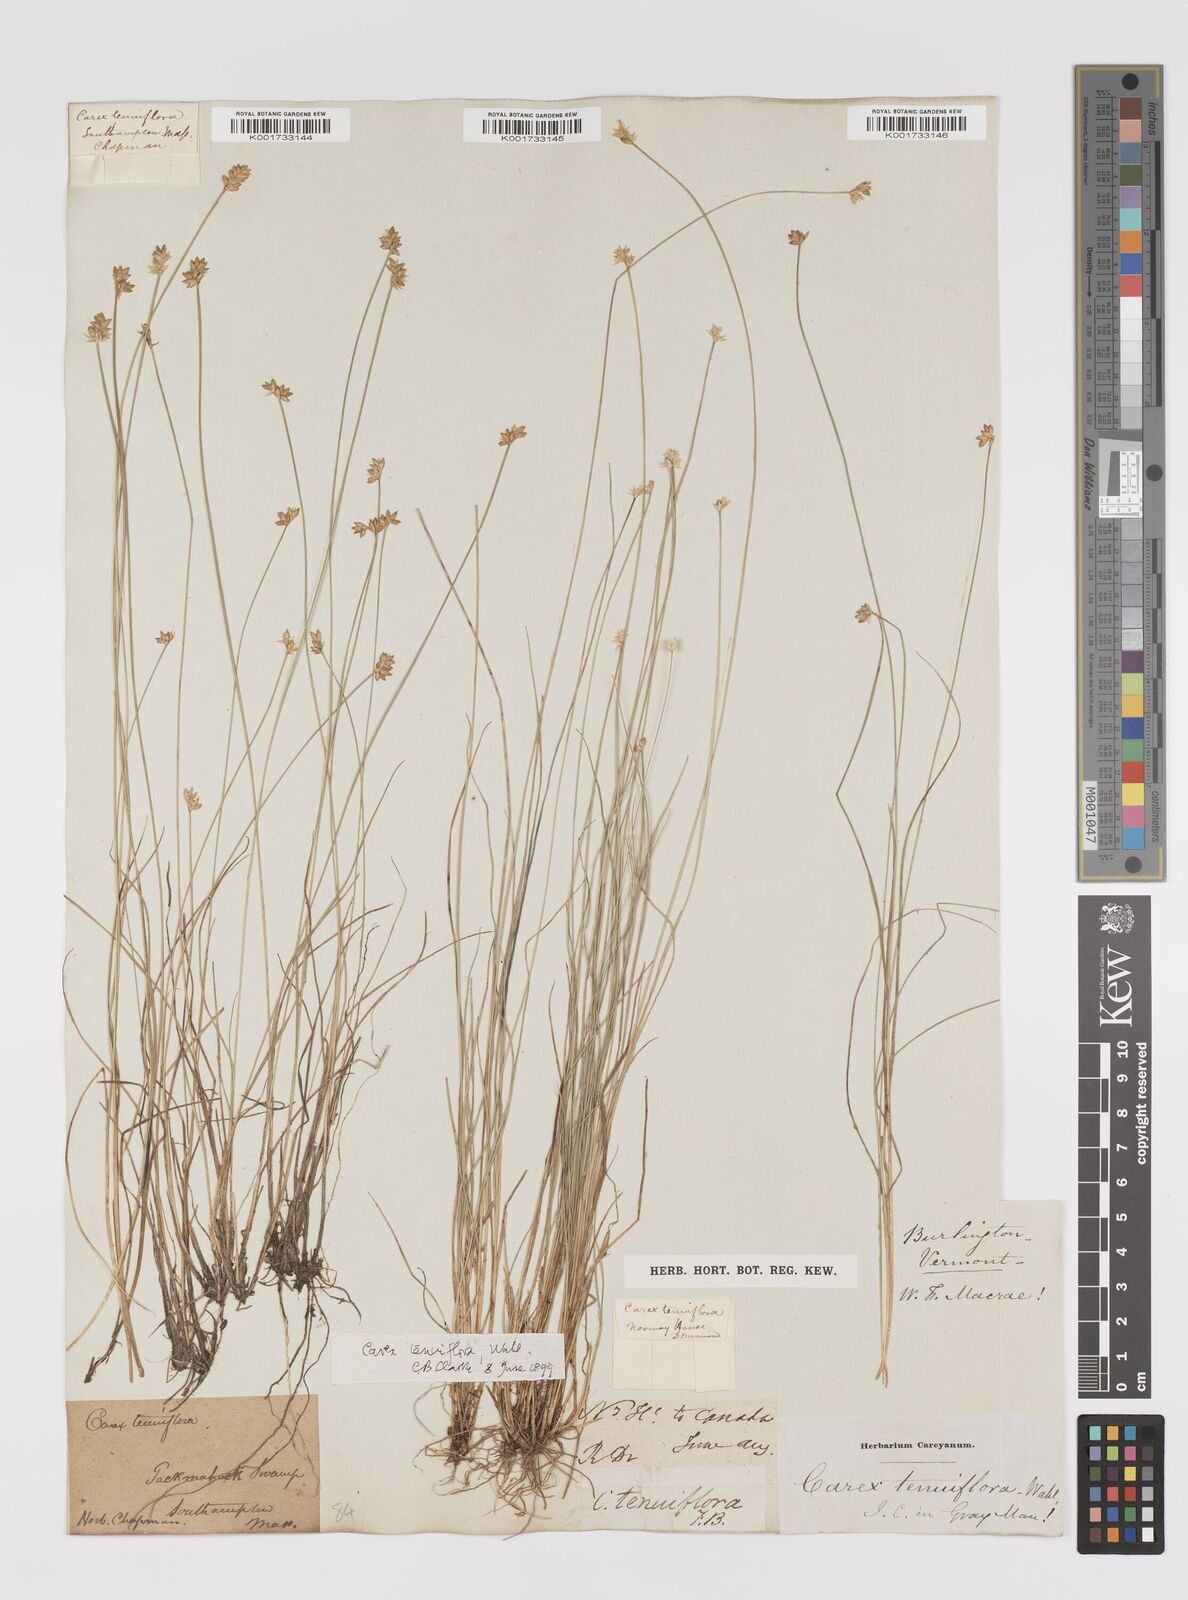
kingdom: Plantae
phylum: Tracheophyta
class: Liliopsida
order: Poales
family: Cyperaceae
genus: Carex
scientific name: Carex tenuiflora
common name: Sparse-flowered sedge
